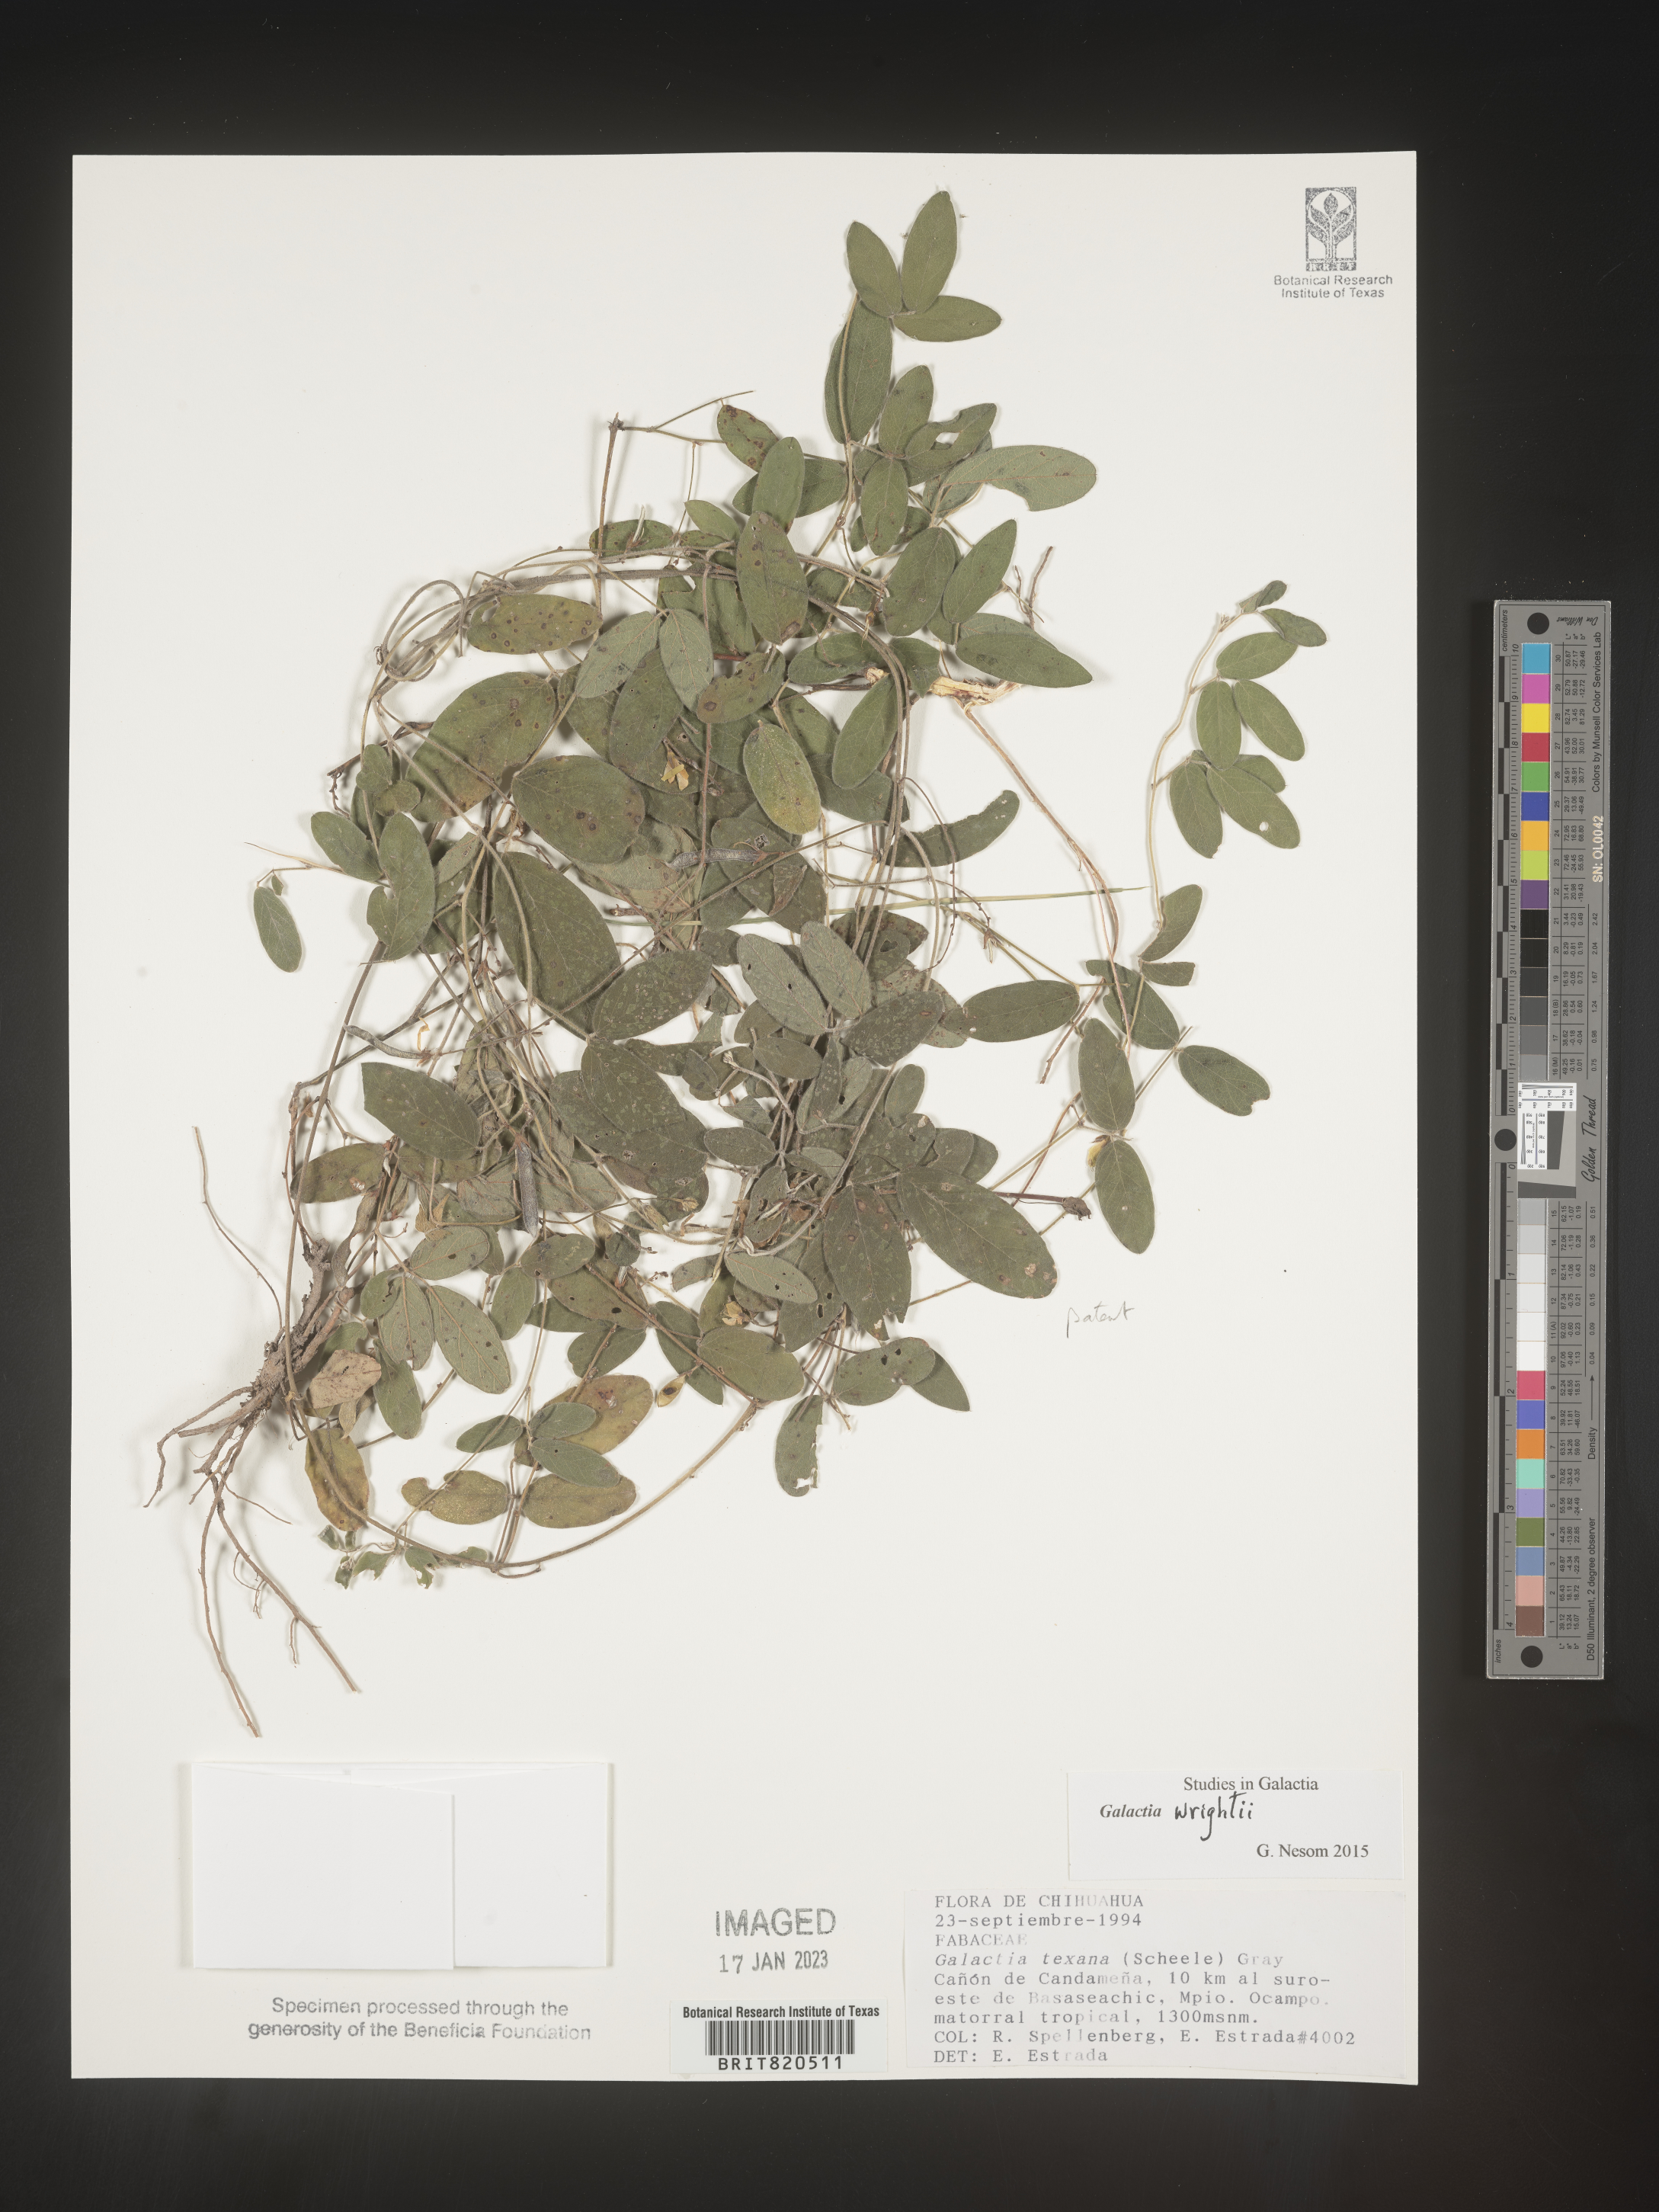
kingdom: Plantae
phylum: Tracheophyta
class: Magnoliopsida
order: Fabales
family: Fabaceae
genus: Galactia
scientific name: Galactia wrightii
